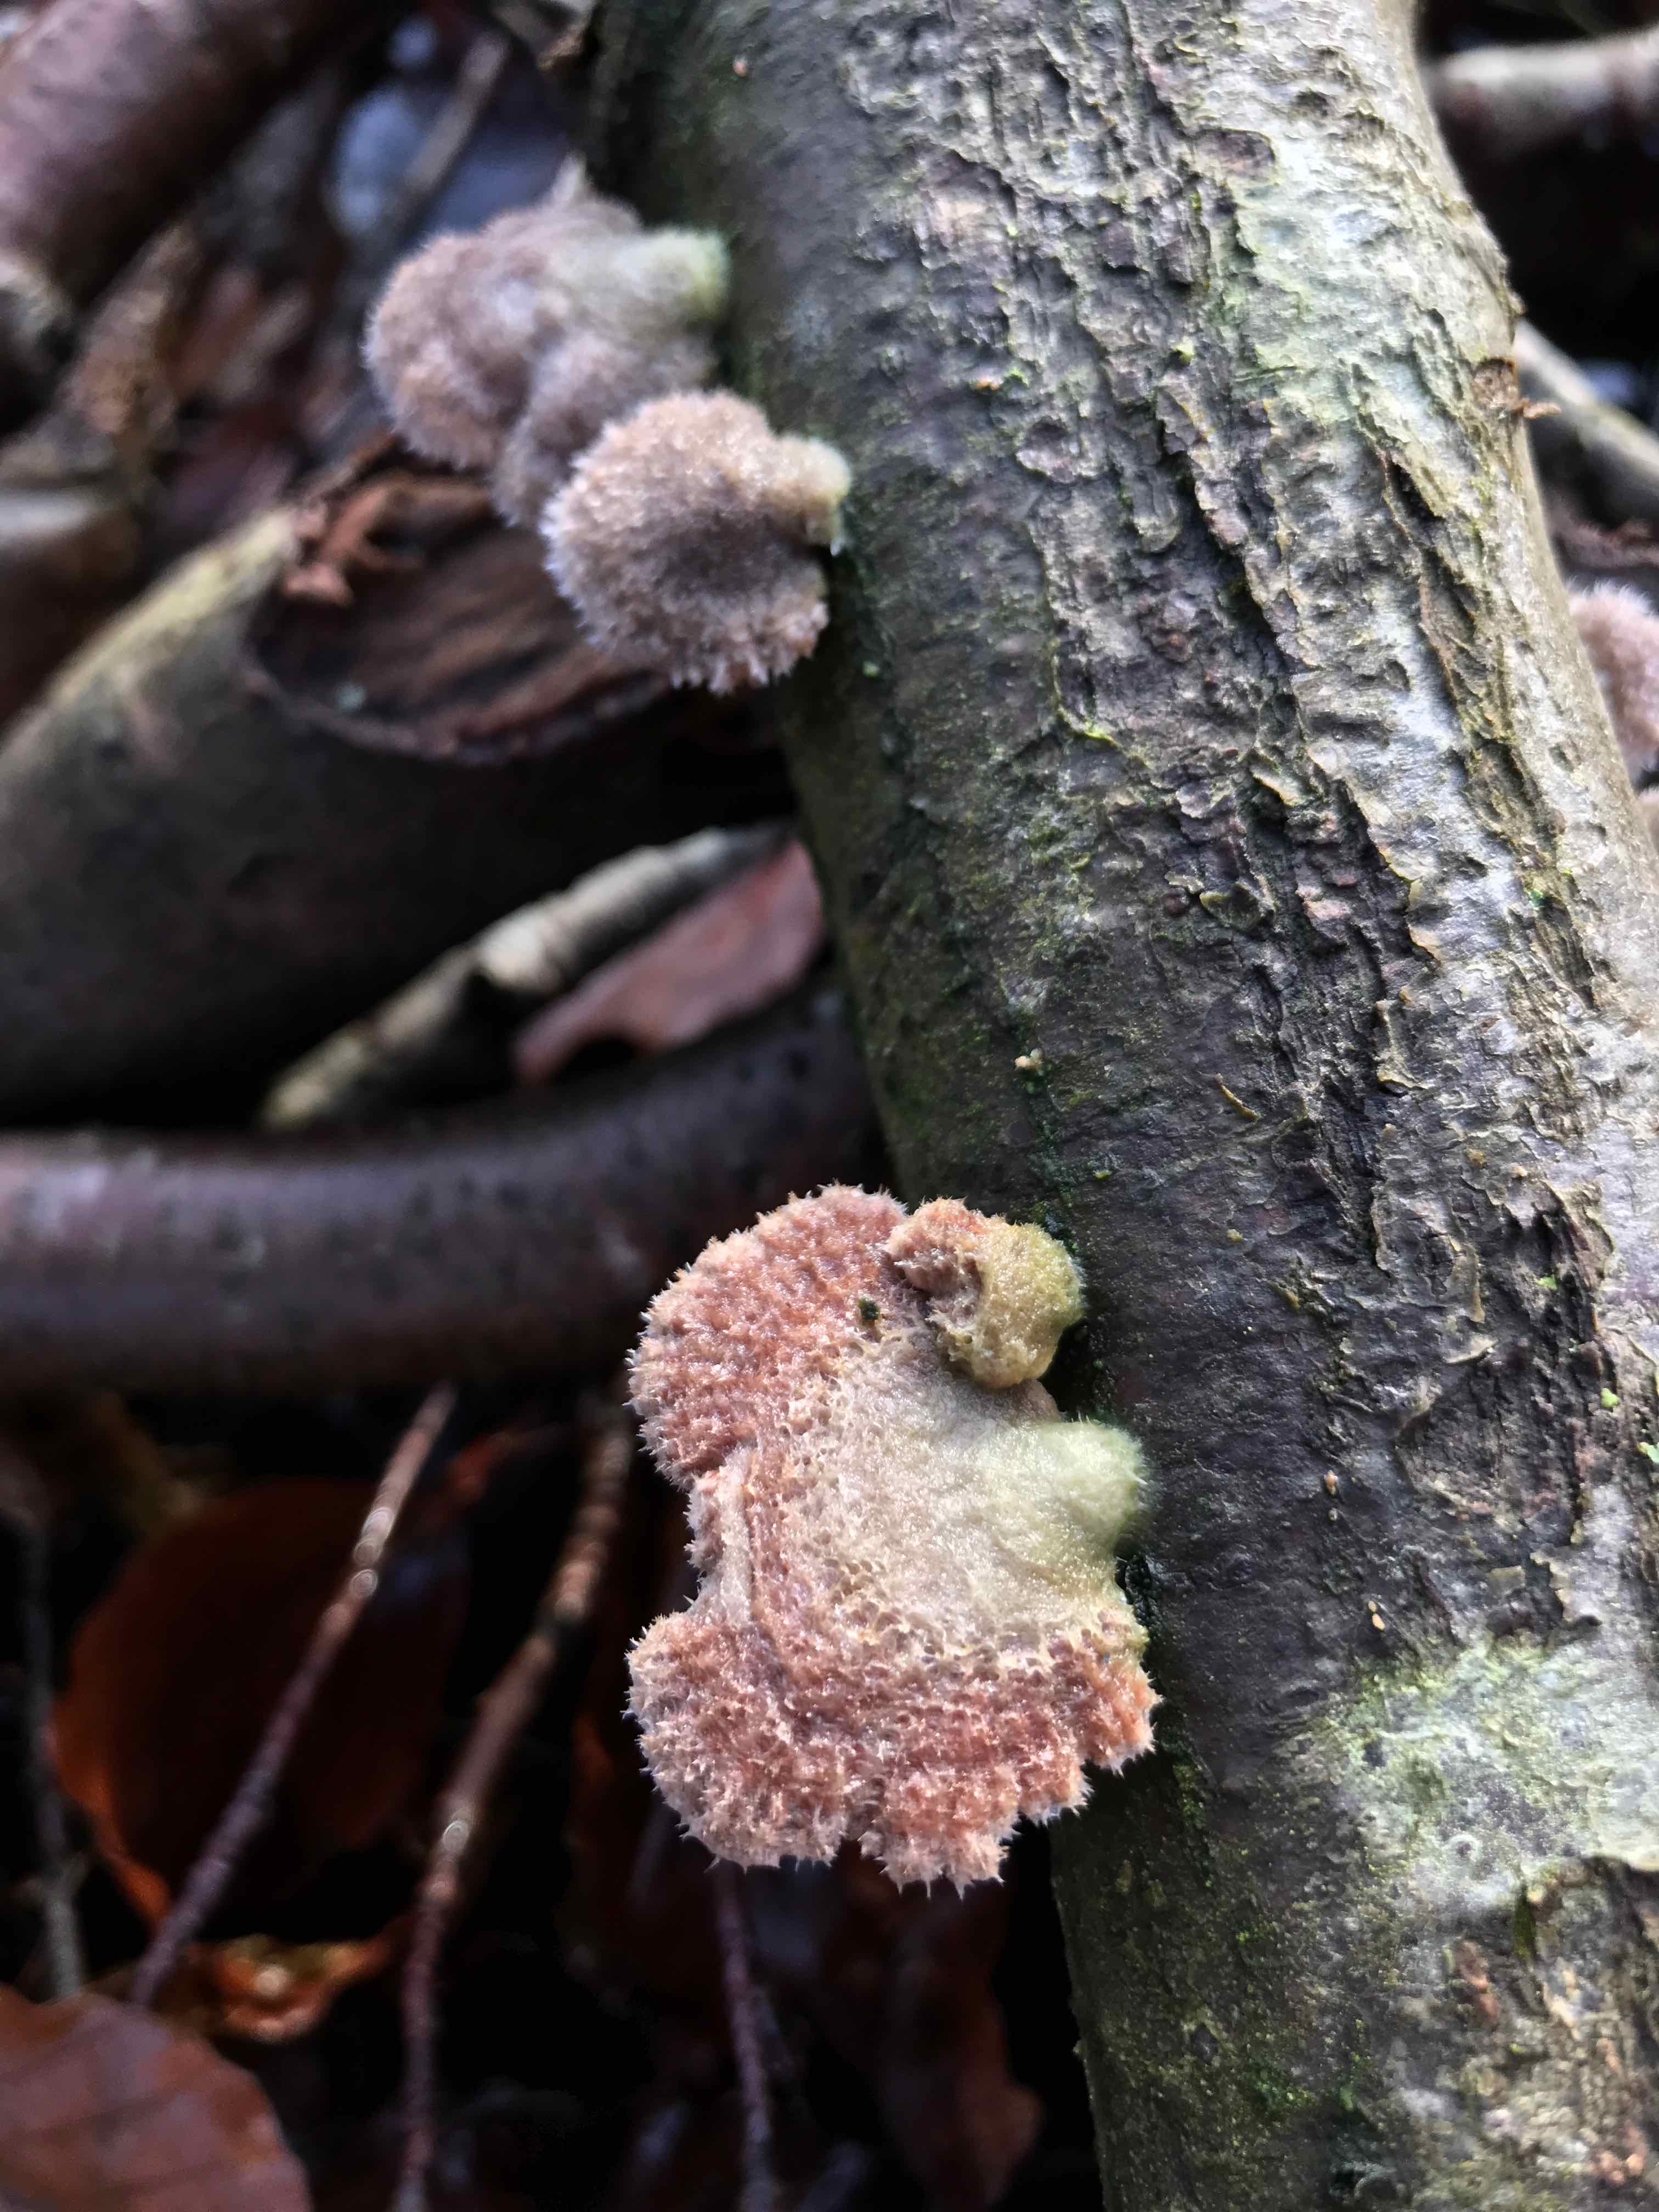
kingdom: Fungi
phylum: Basidiomycota
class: Agaricomycetes
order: Agaricales
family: Schizophyllaceae
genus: Schizophyllum
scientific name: Schizophyllum commune
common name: kløvblad
